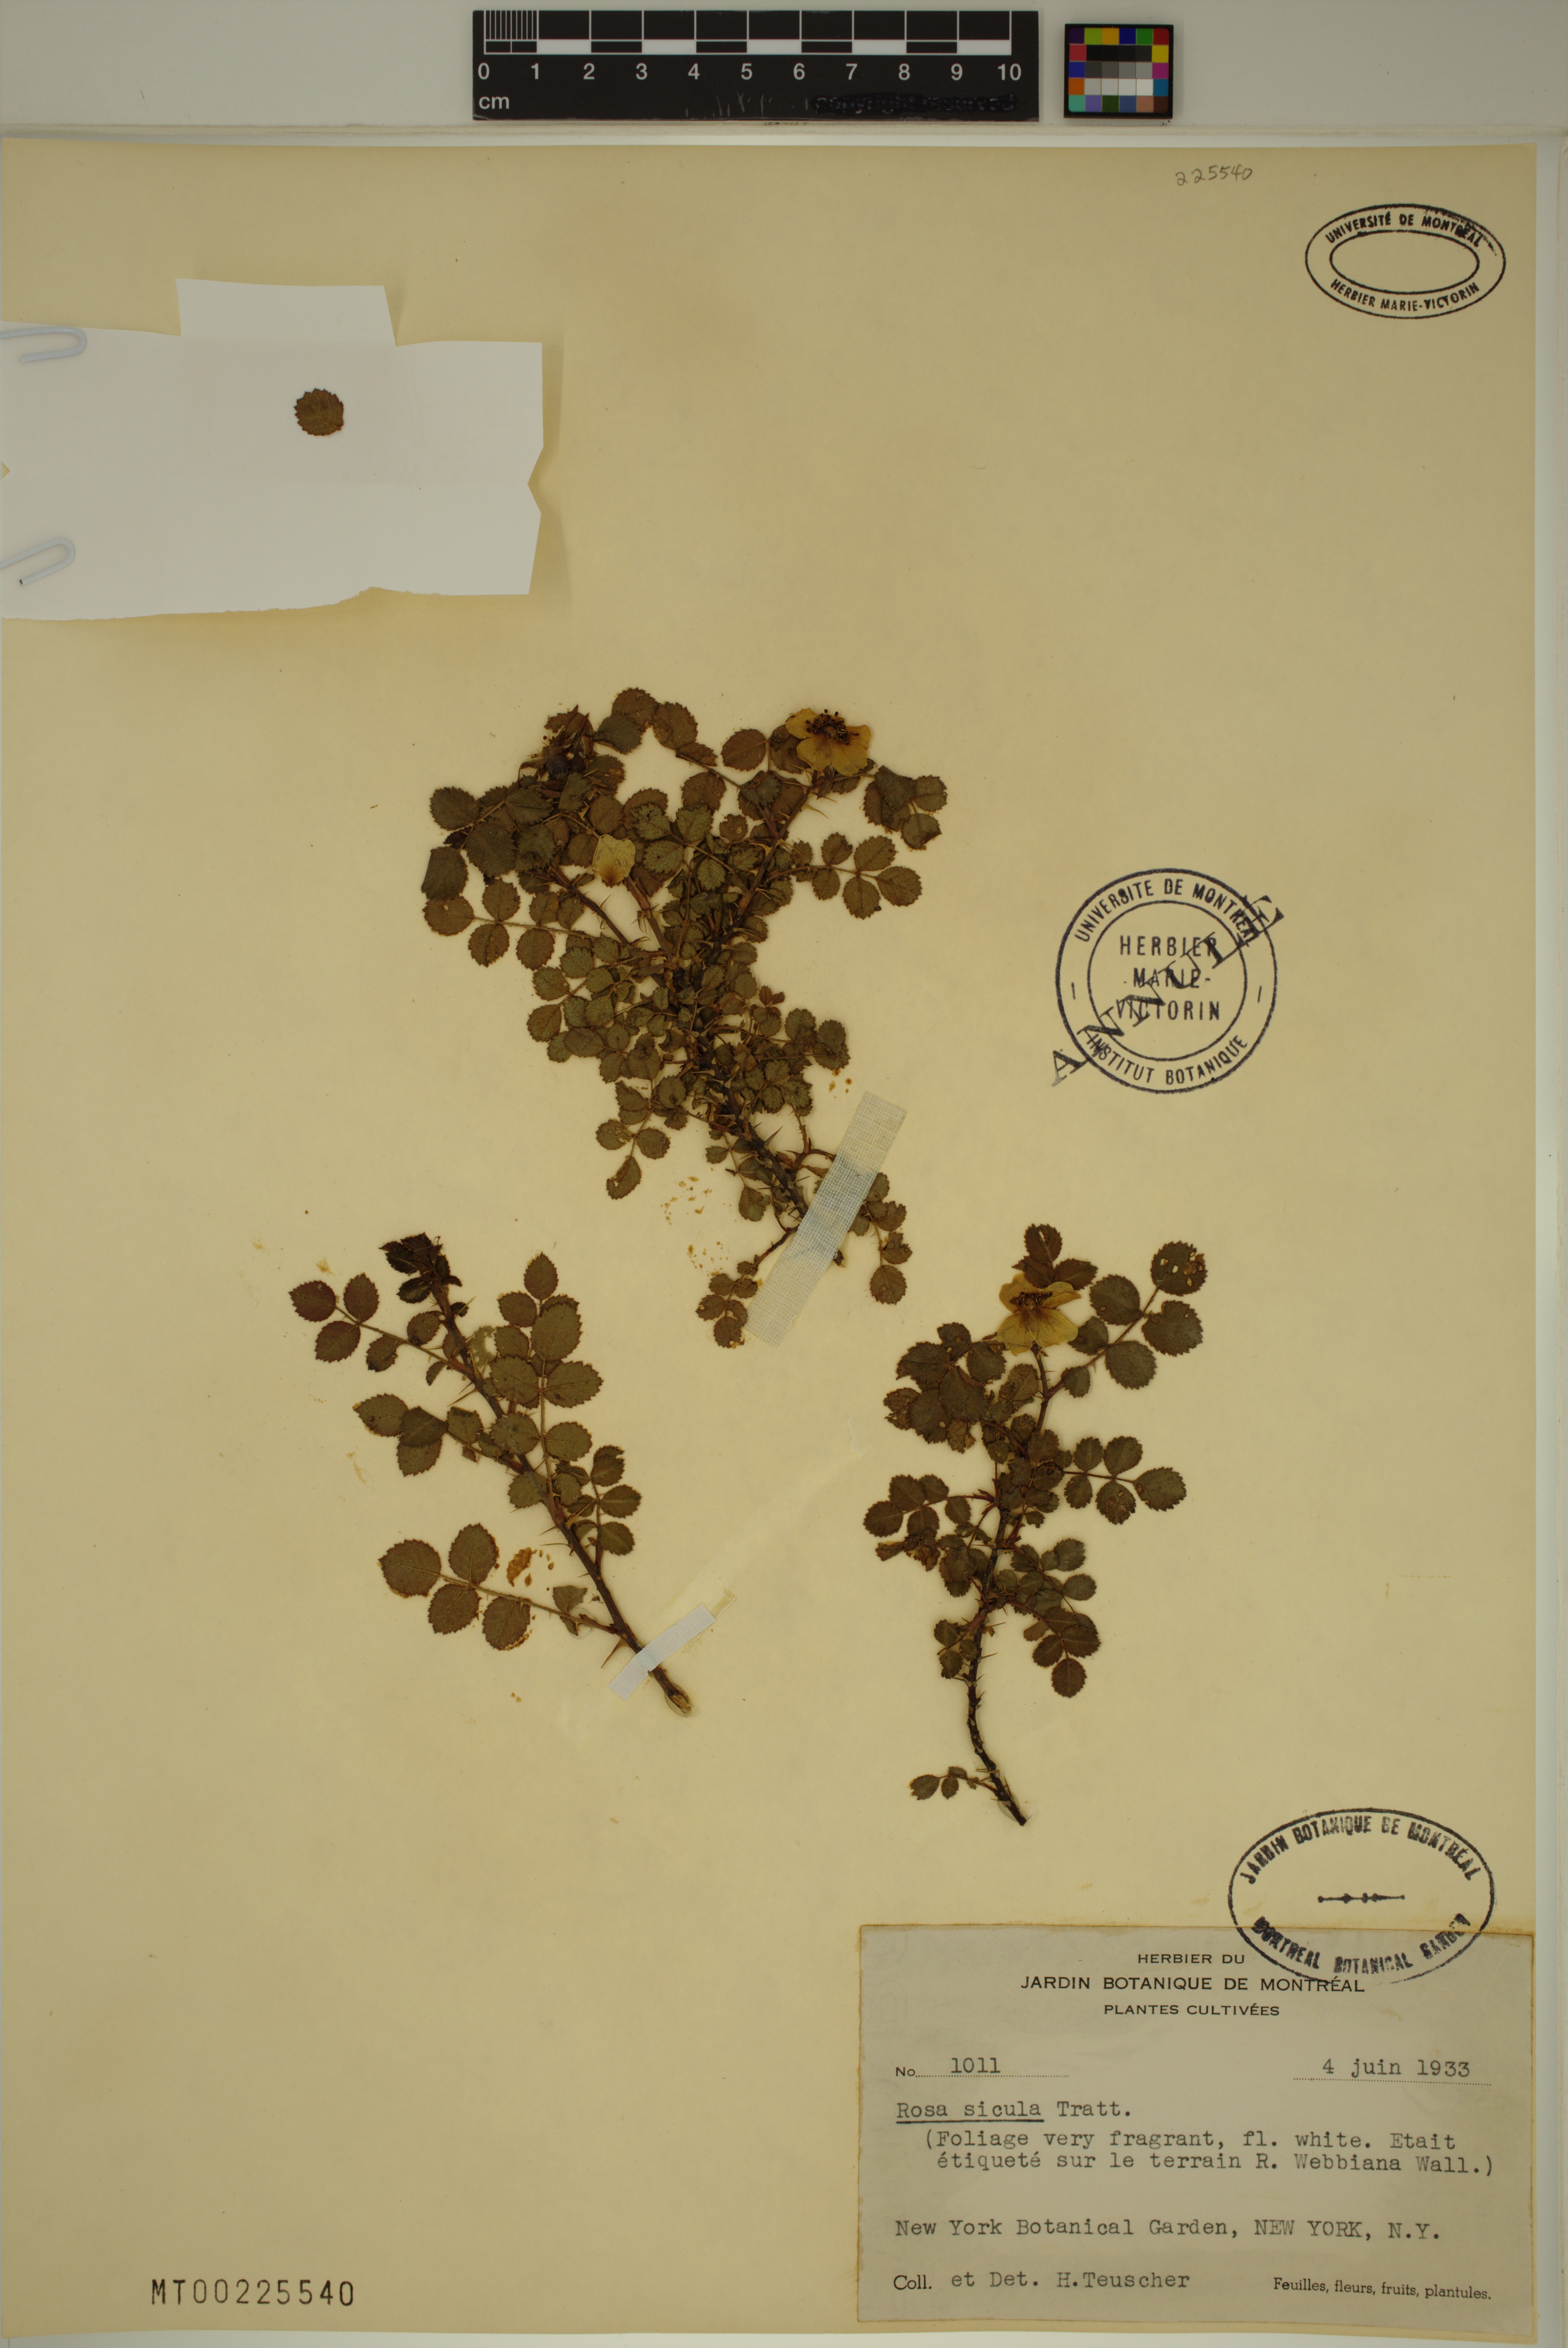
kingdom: Plantae
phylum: Tracheophyta
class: Magnoliopsida
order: Rosales
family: Rosaceae
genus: Rosa
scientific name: Rosa pulverulenta
